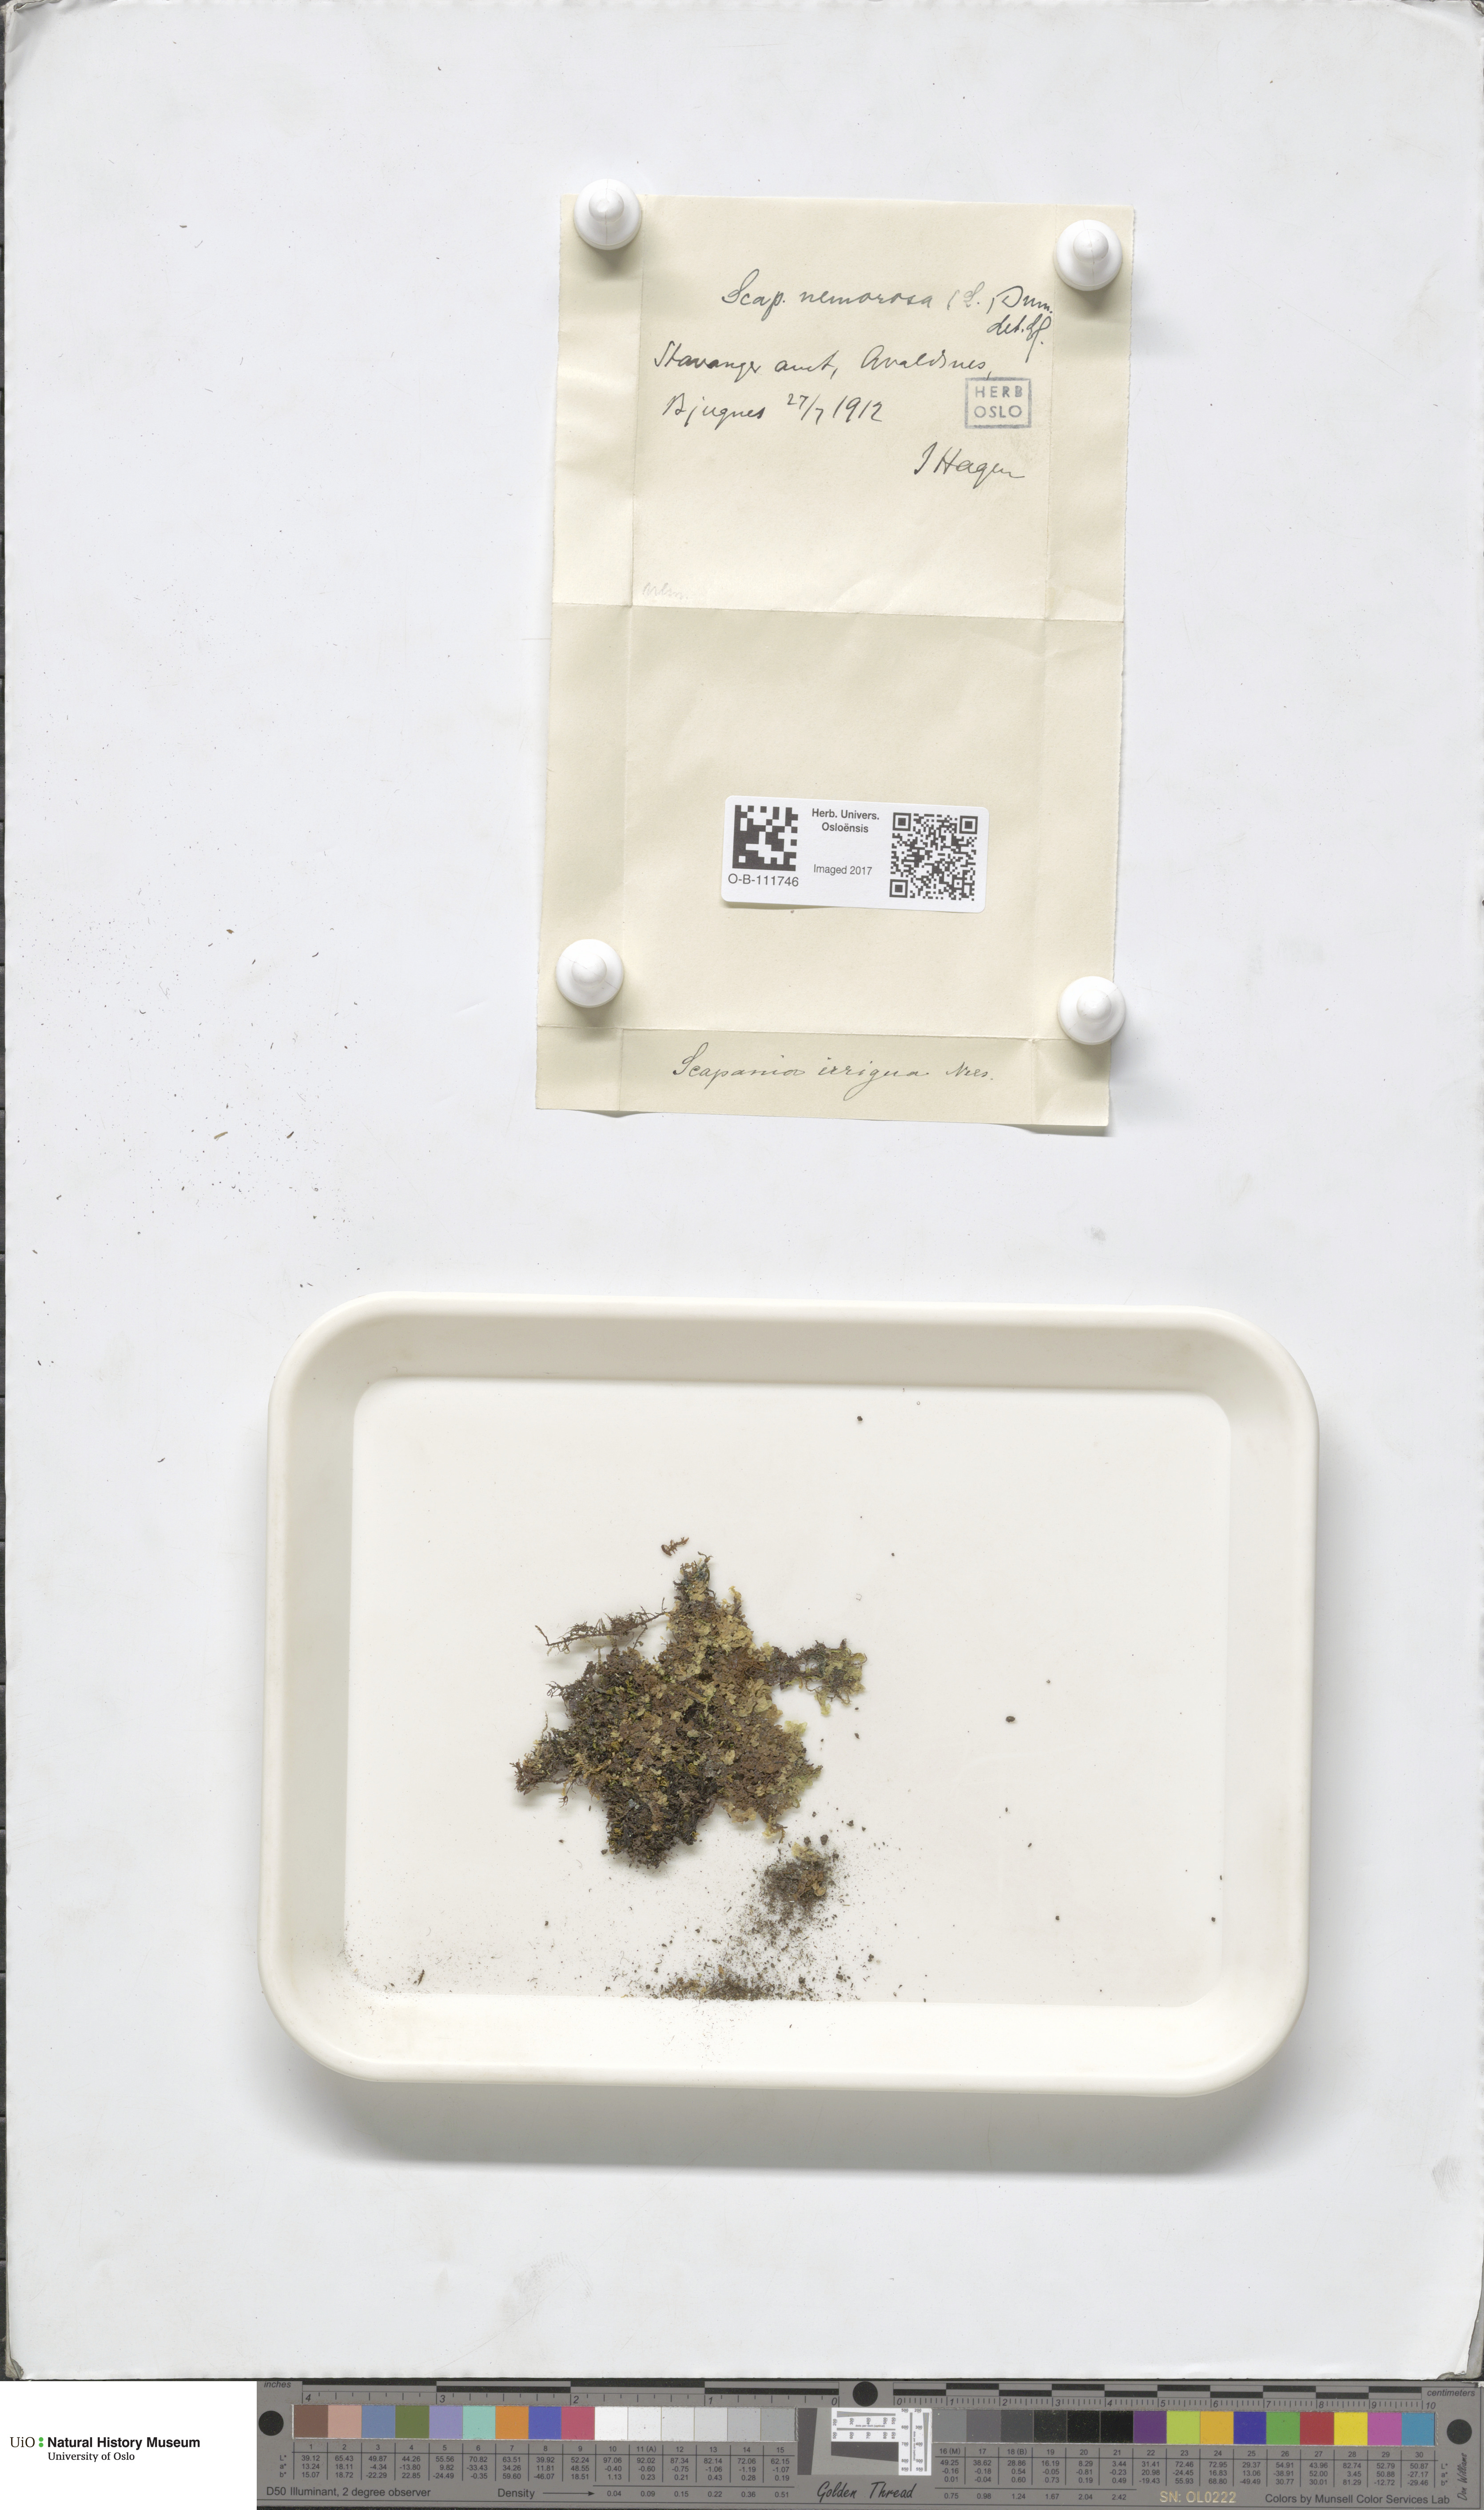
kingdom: Plantae
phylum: Marchantiophyta
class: Jungermanniopsida
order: Jungermanniales
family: Scapaniaceae
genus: Scapania
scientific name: Scapania nemorea
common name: Grove earwort
